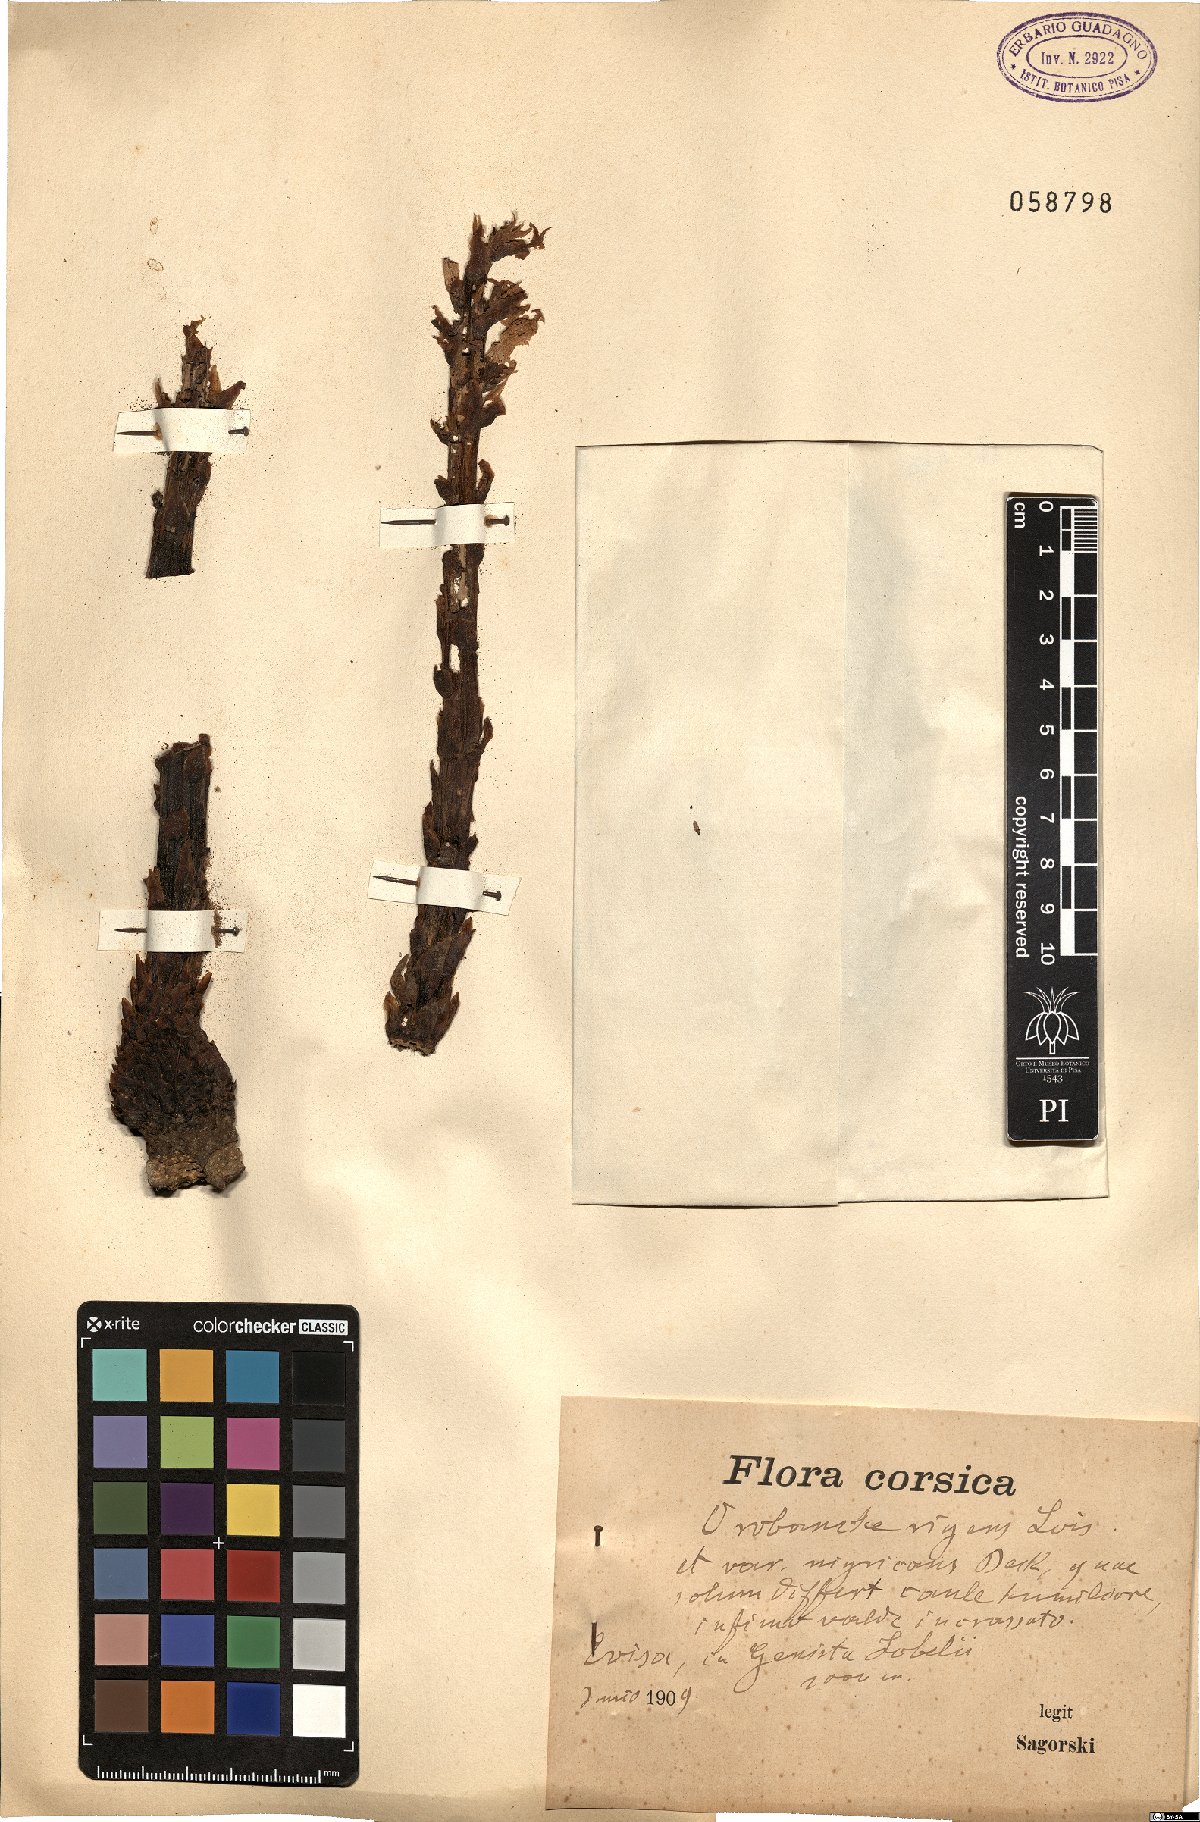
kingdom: Plantae
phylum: Tracheophyta
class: Magnoliopsida
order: Lamiales
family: Orobanchaceae
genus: Orobanche
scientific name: Orobanche rigens
